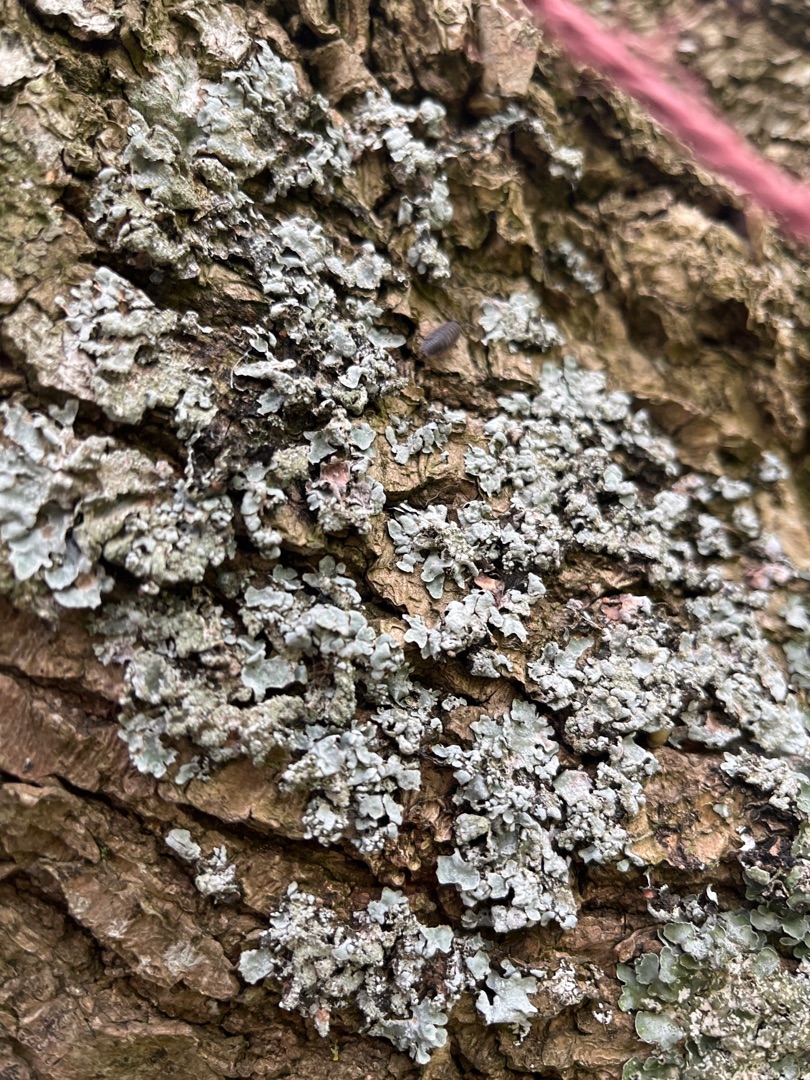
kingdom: Fungi
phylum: Ascomycota
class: Lecanoromycetes
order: Lecanorales
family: Parmeliaceae
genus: Parmelia
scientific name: Parmelia sulcata
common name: Rynket skållav
